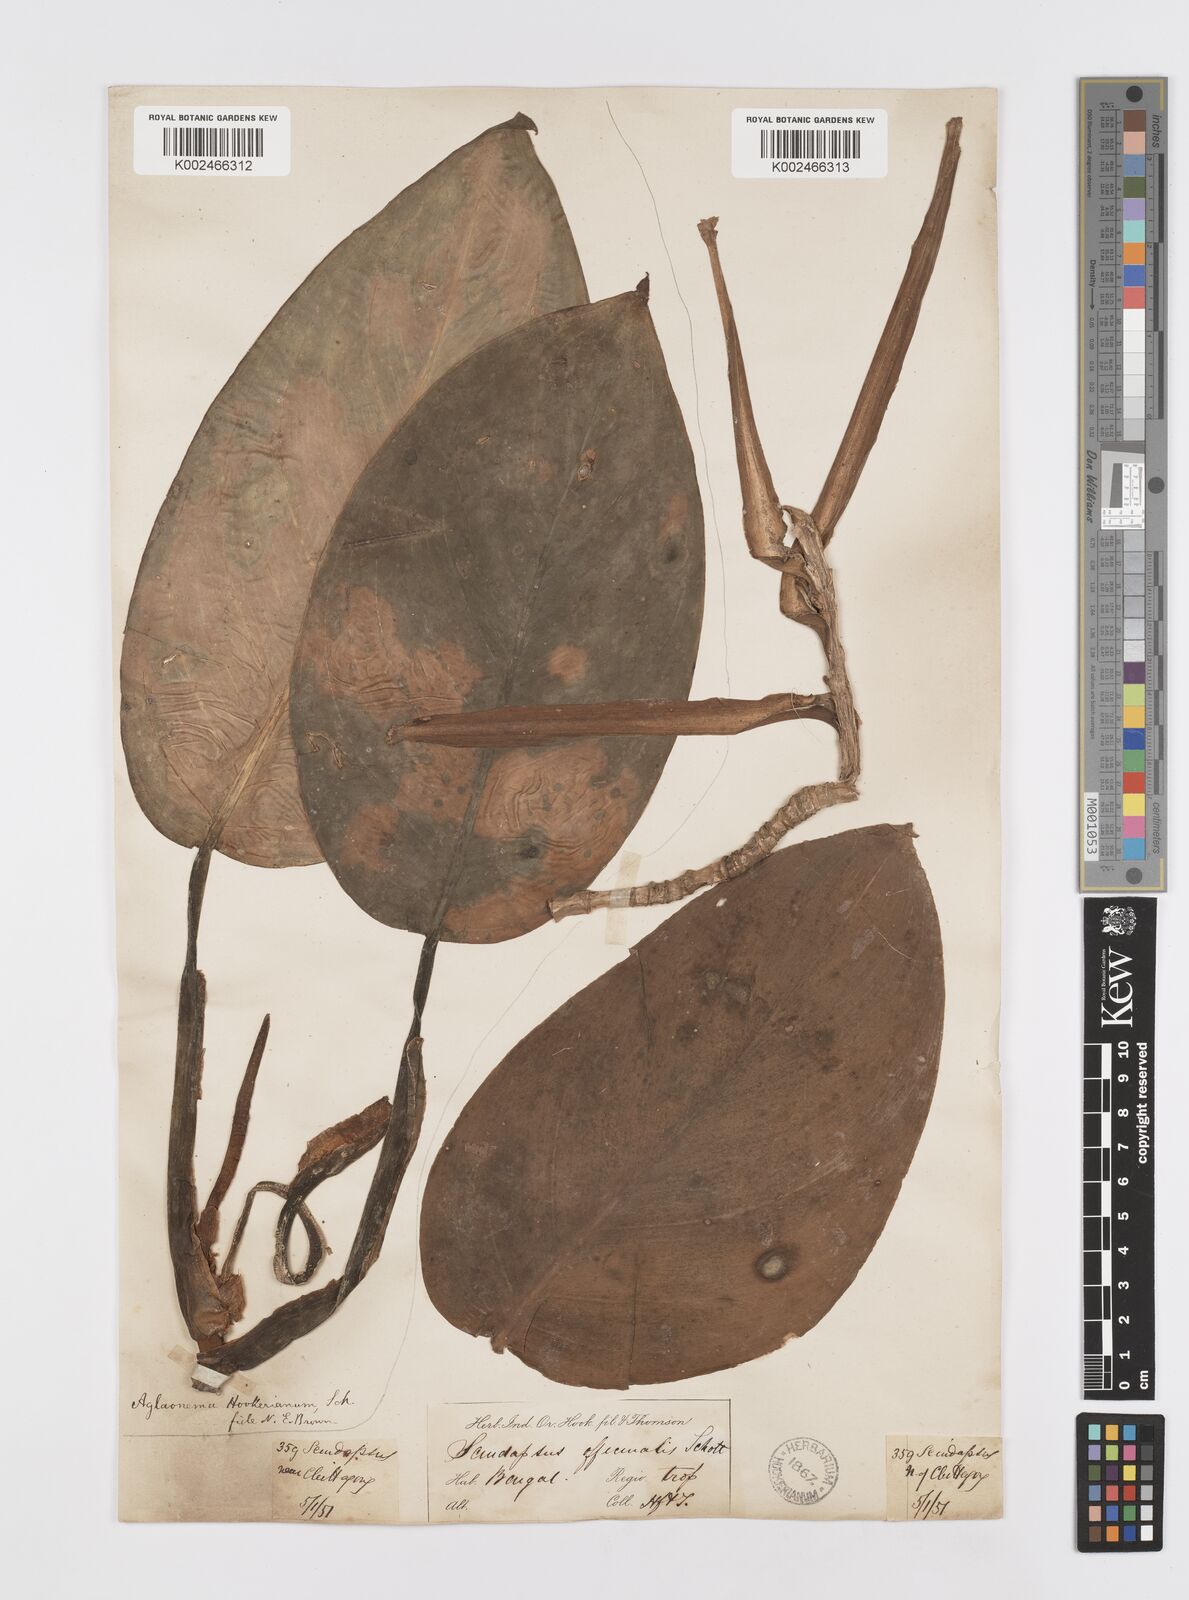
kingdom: Plantae
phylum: Tracheophyta
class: Liliopsida
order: Alismatales
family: Araceae
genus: Scindapsus
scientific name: Scindapsus officinalis
